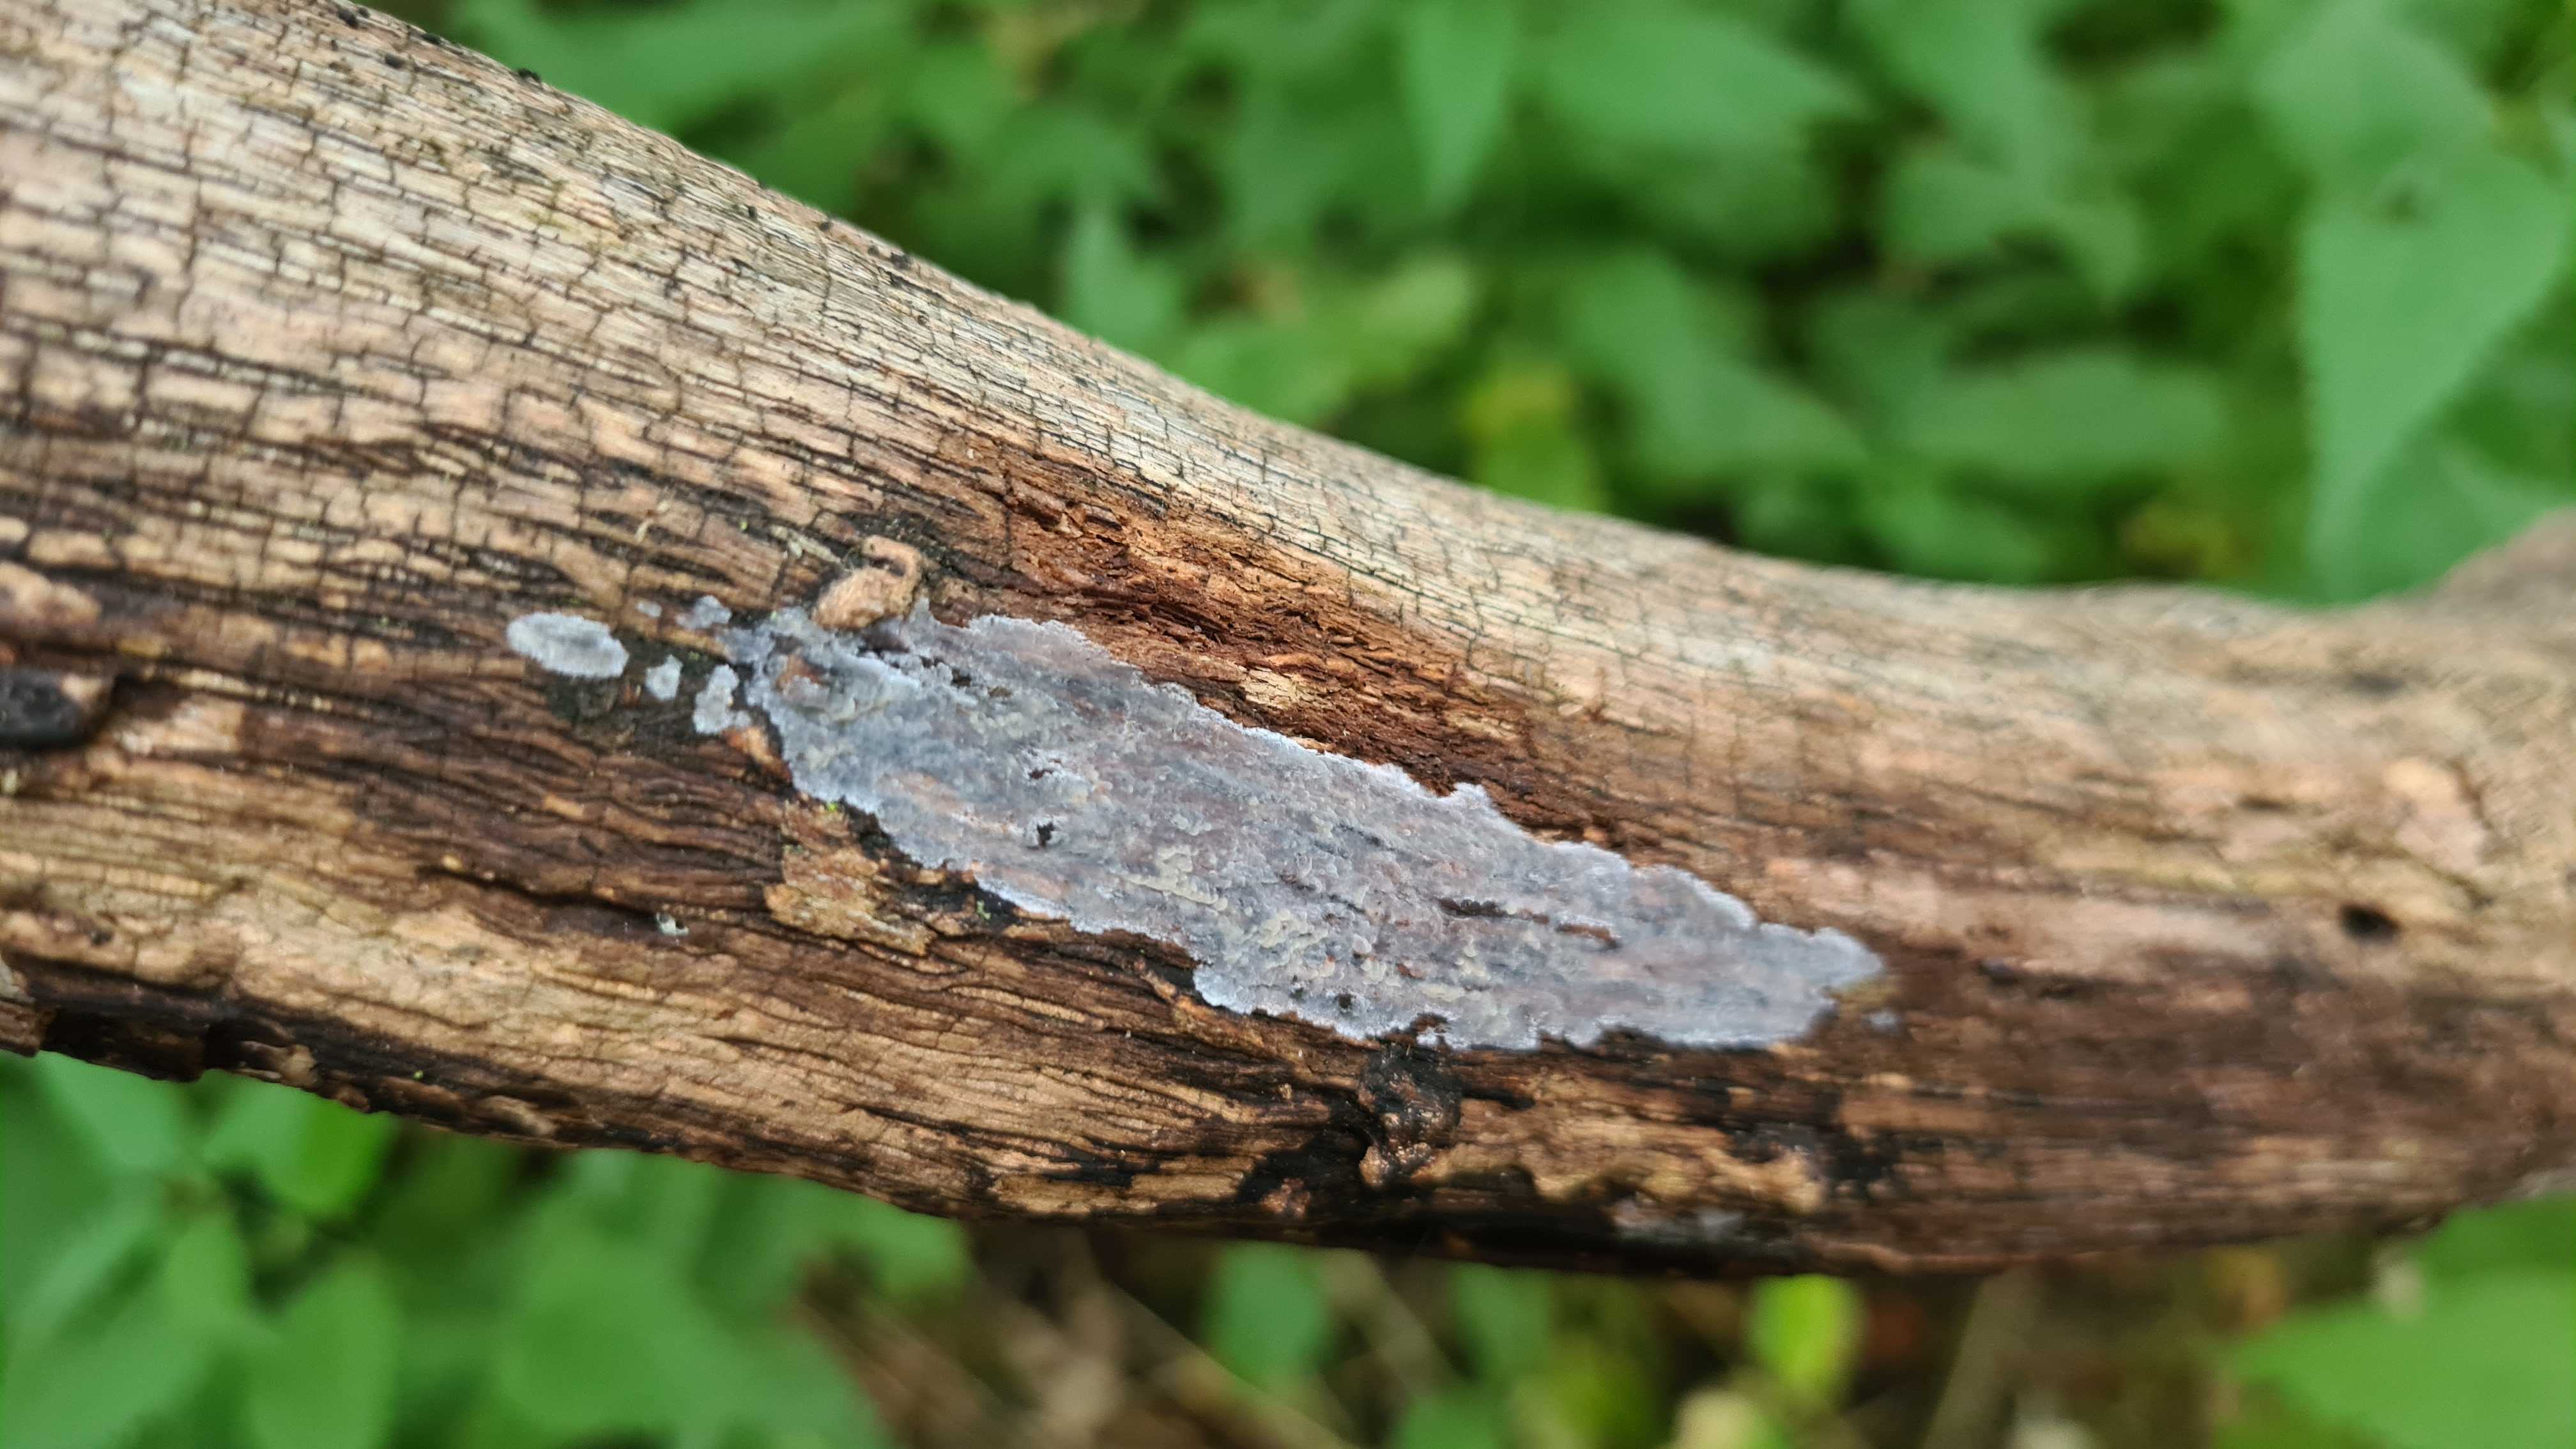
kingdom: Fungi
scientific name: Fungi
